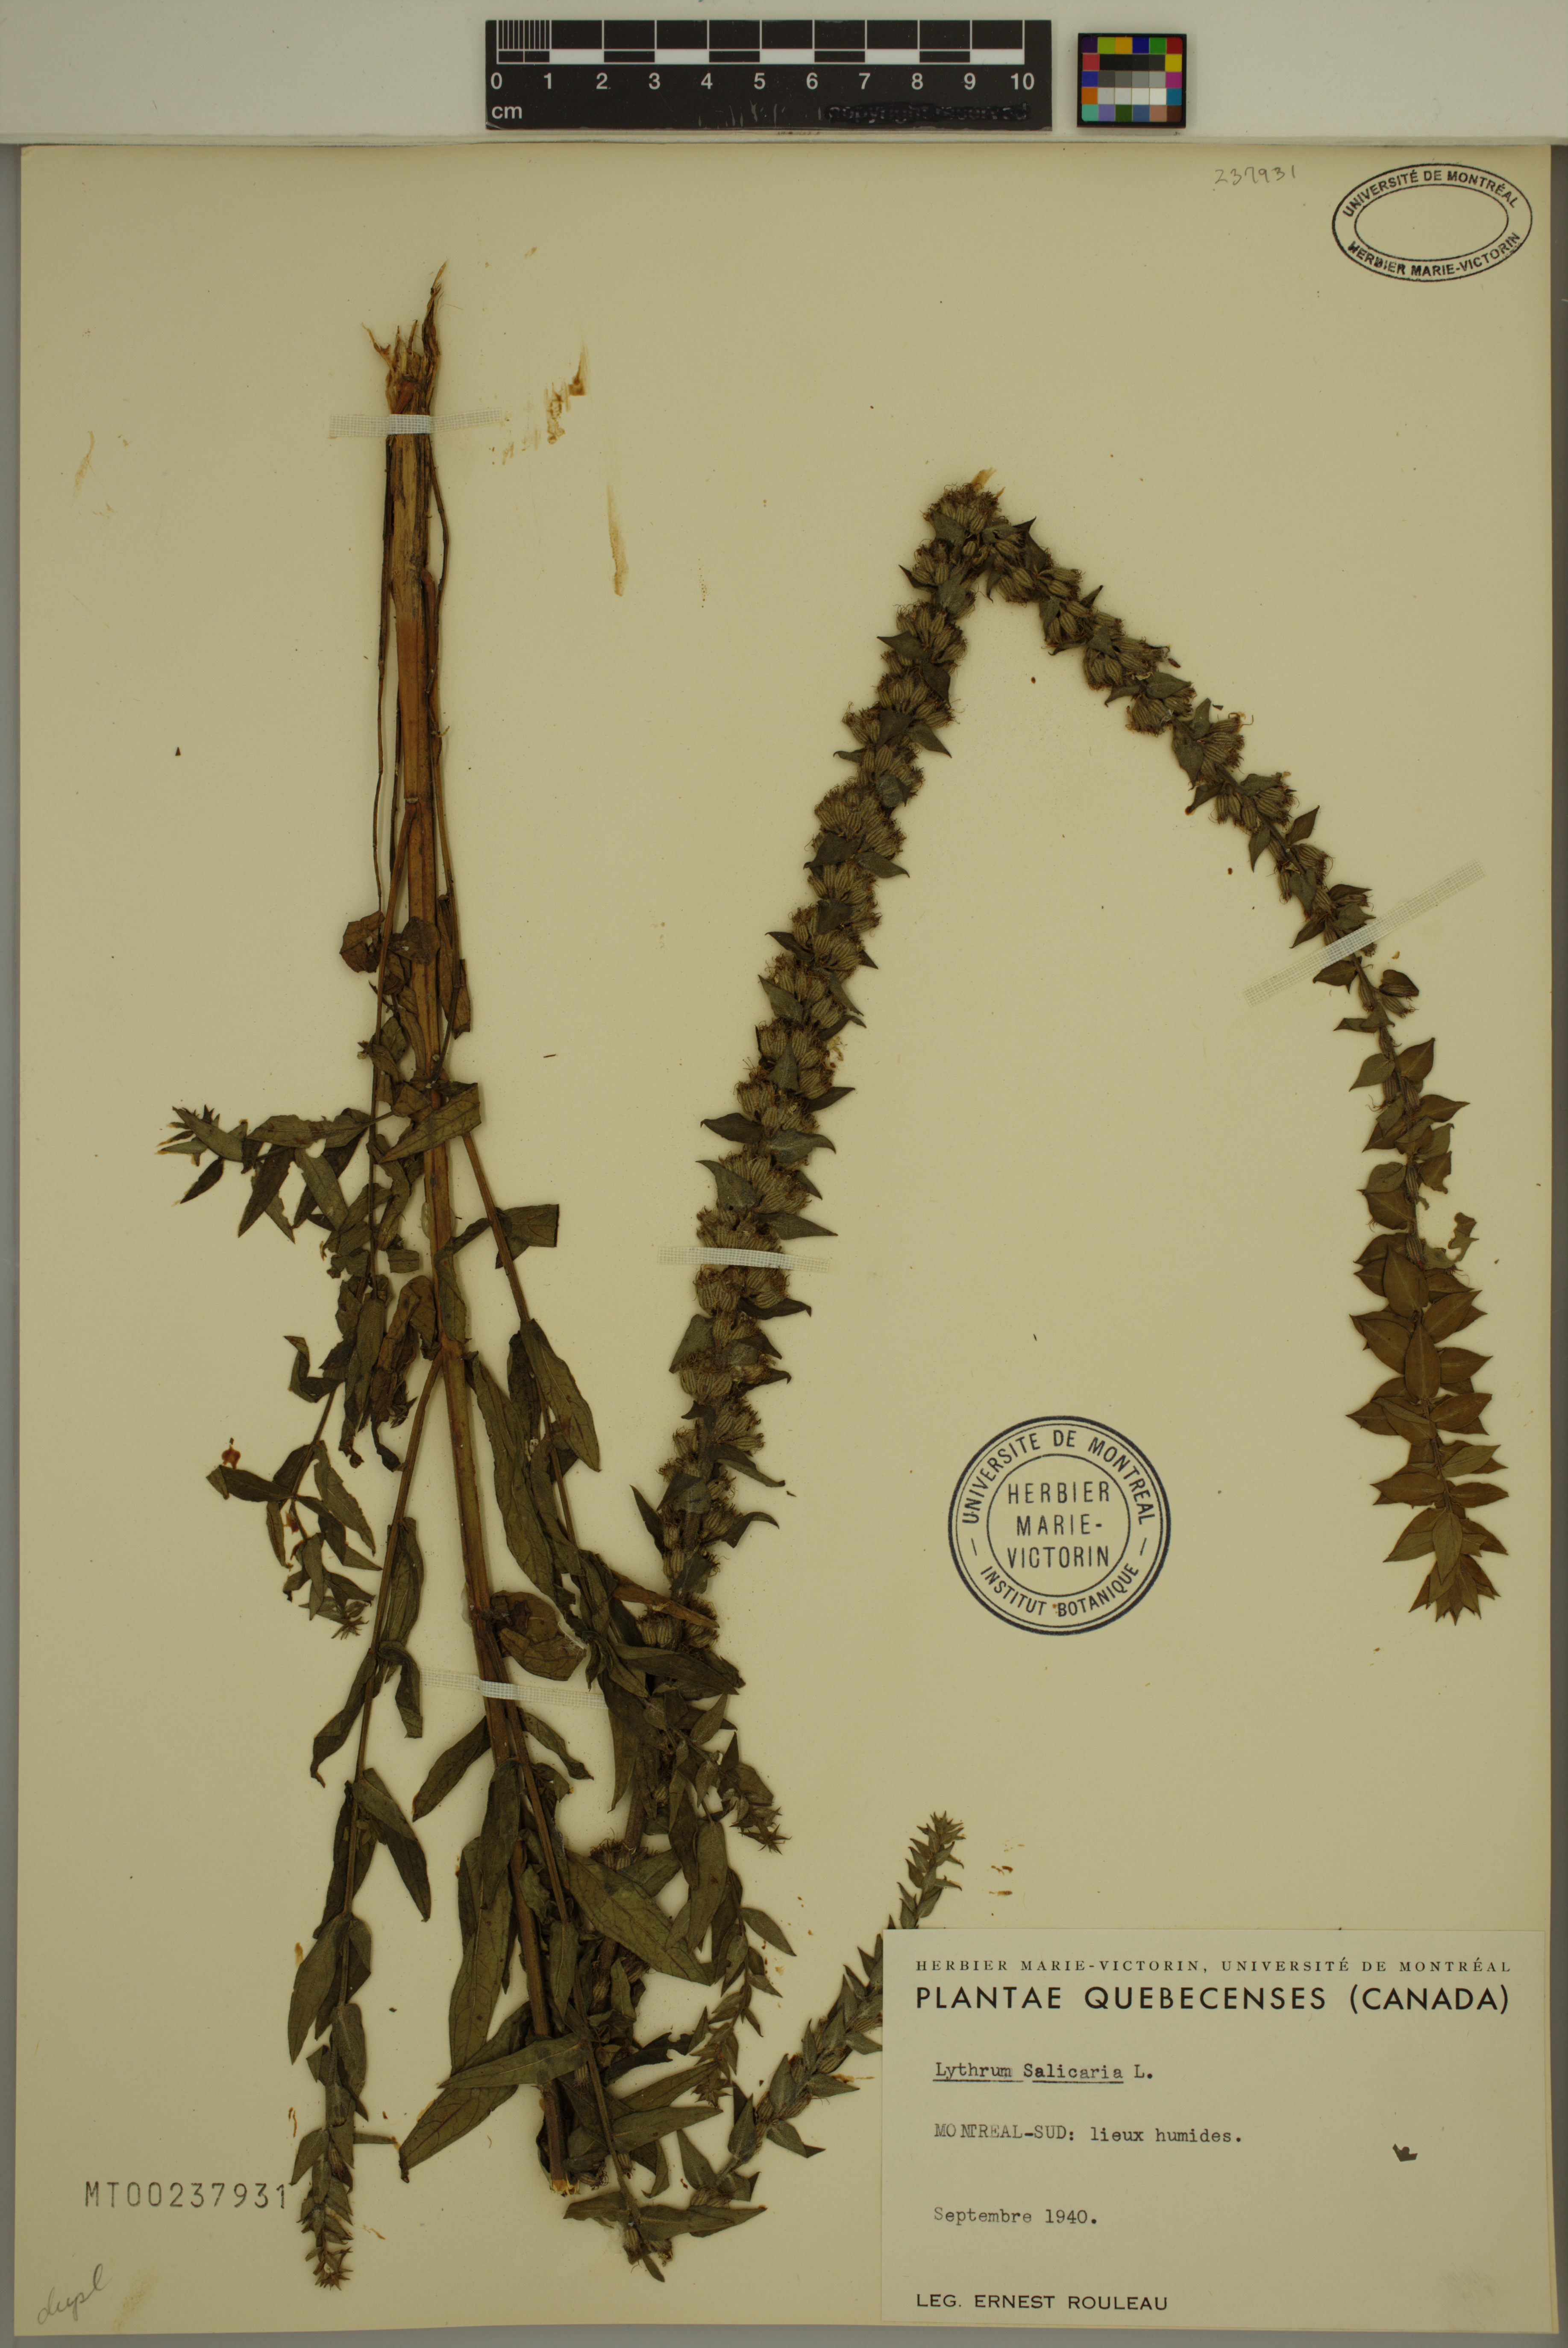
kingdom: Plantae
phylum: Tracheophyta
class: Magnoliopsida
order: Myrtales
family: Lythraceae
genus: Lythrum
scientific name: Lythrum salicaria
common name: Purple loosestrife
